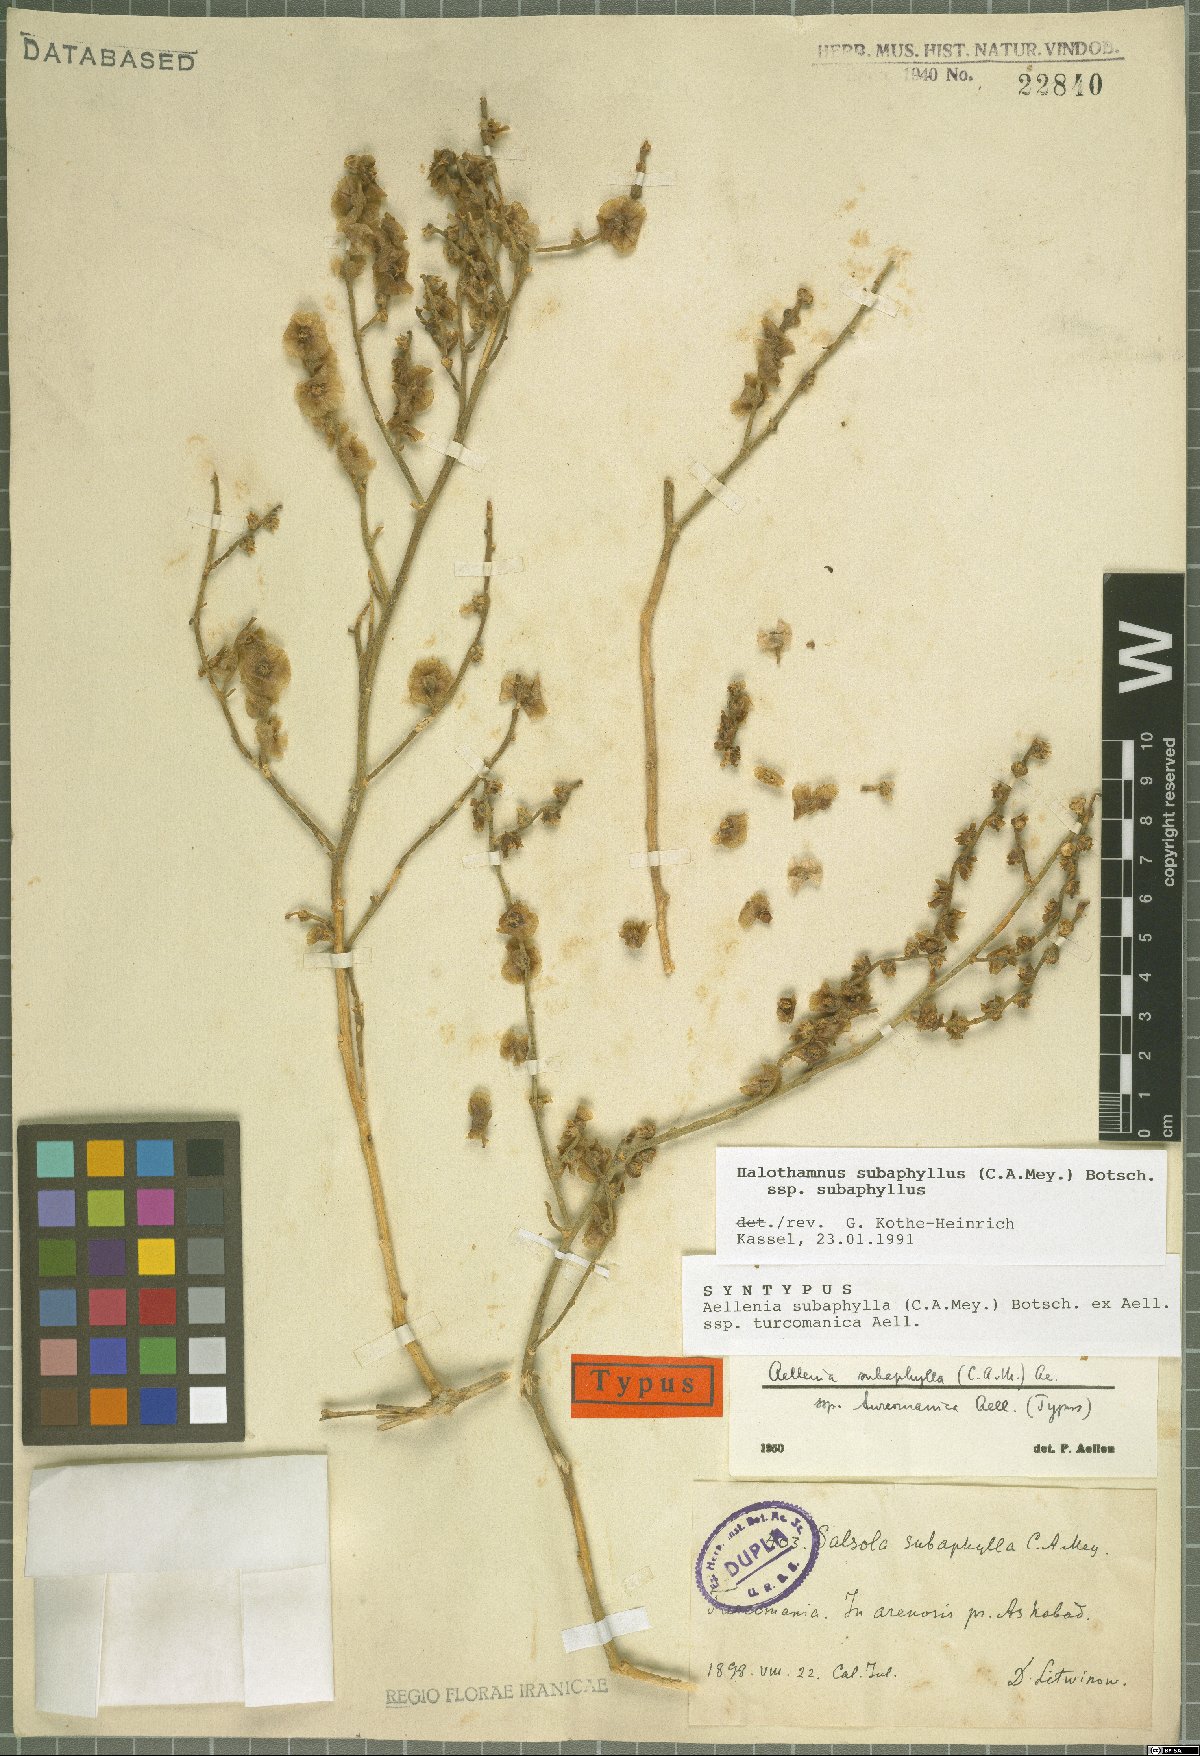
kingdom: Plantae
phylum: Tracheophyta
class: Magnoliopsida
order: Caryophyllales
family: Amaranthaceae
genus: Halothamnus
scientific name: Halothamnus subaphyllus
